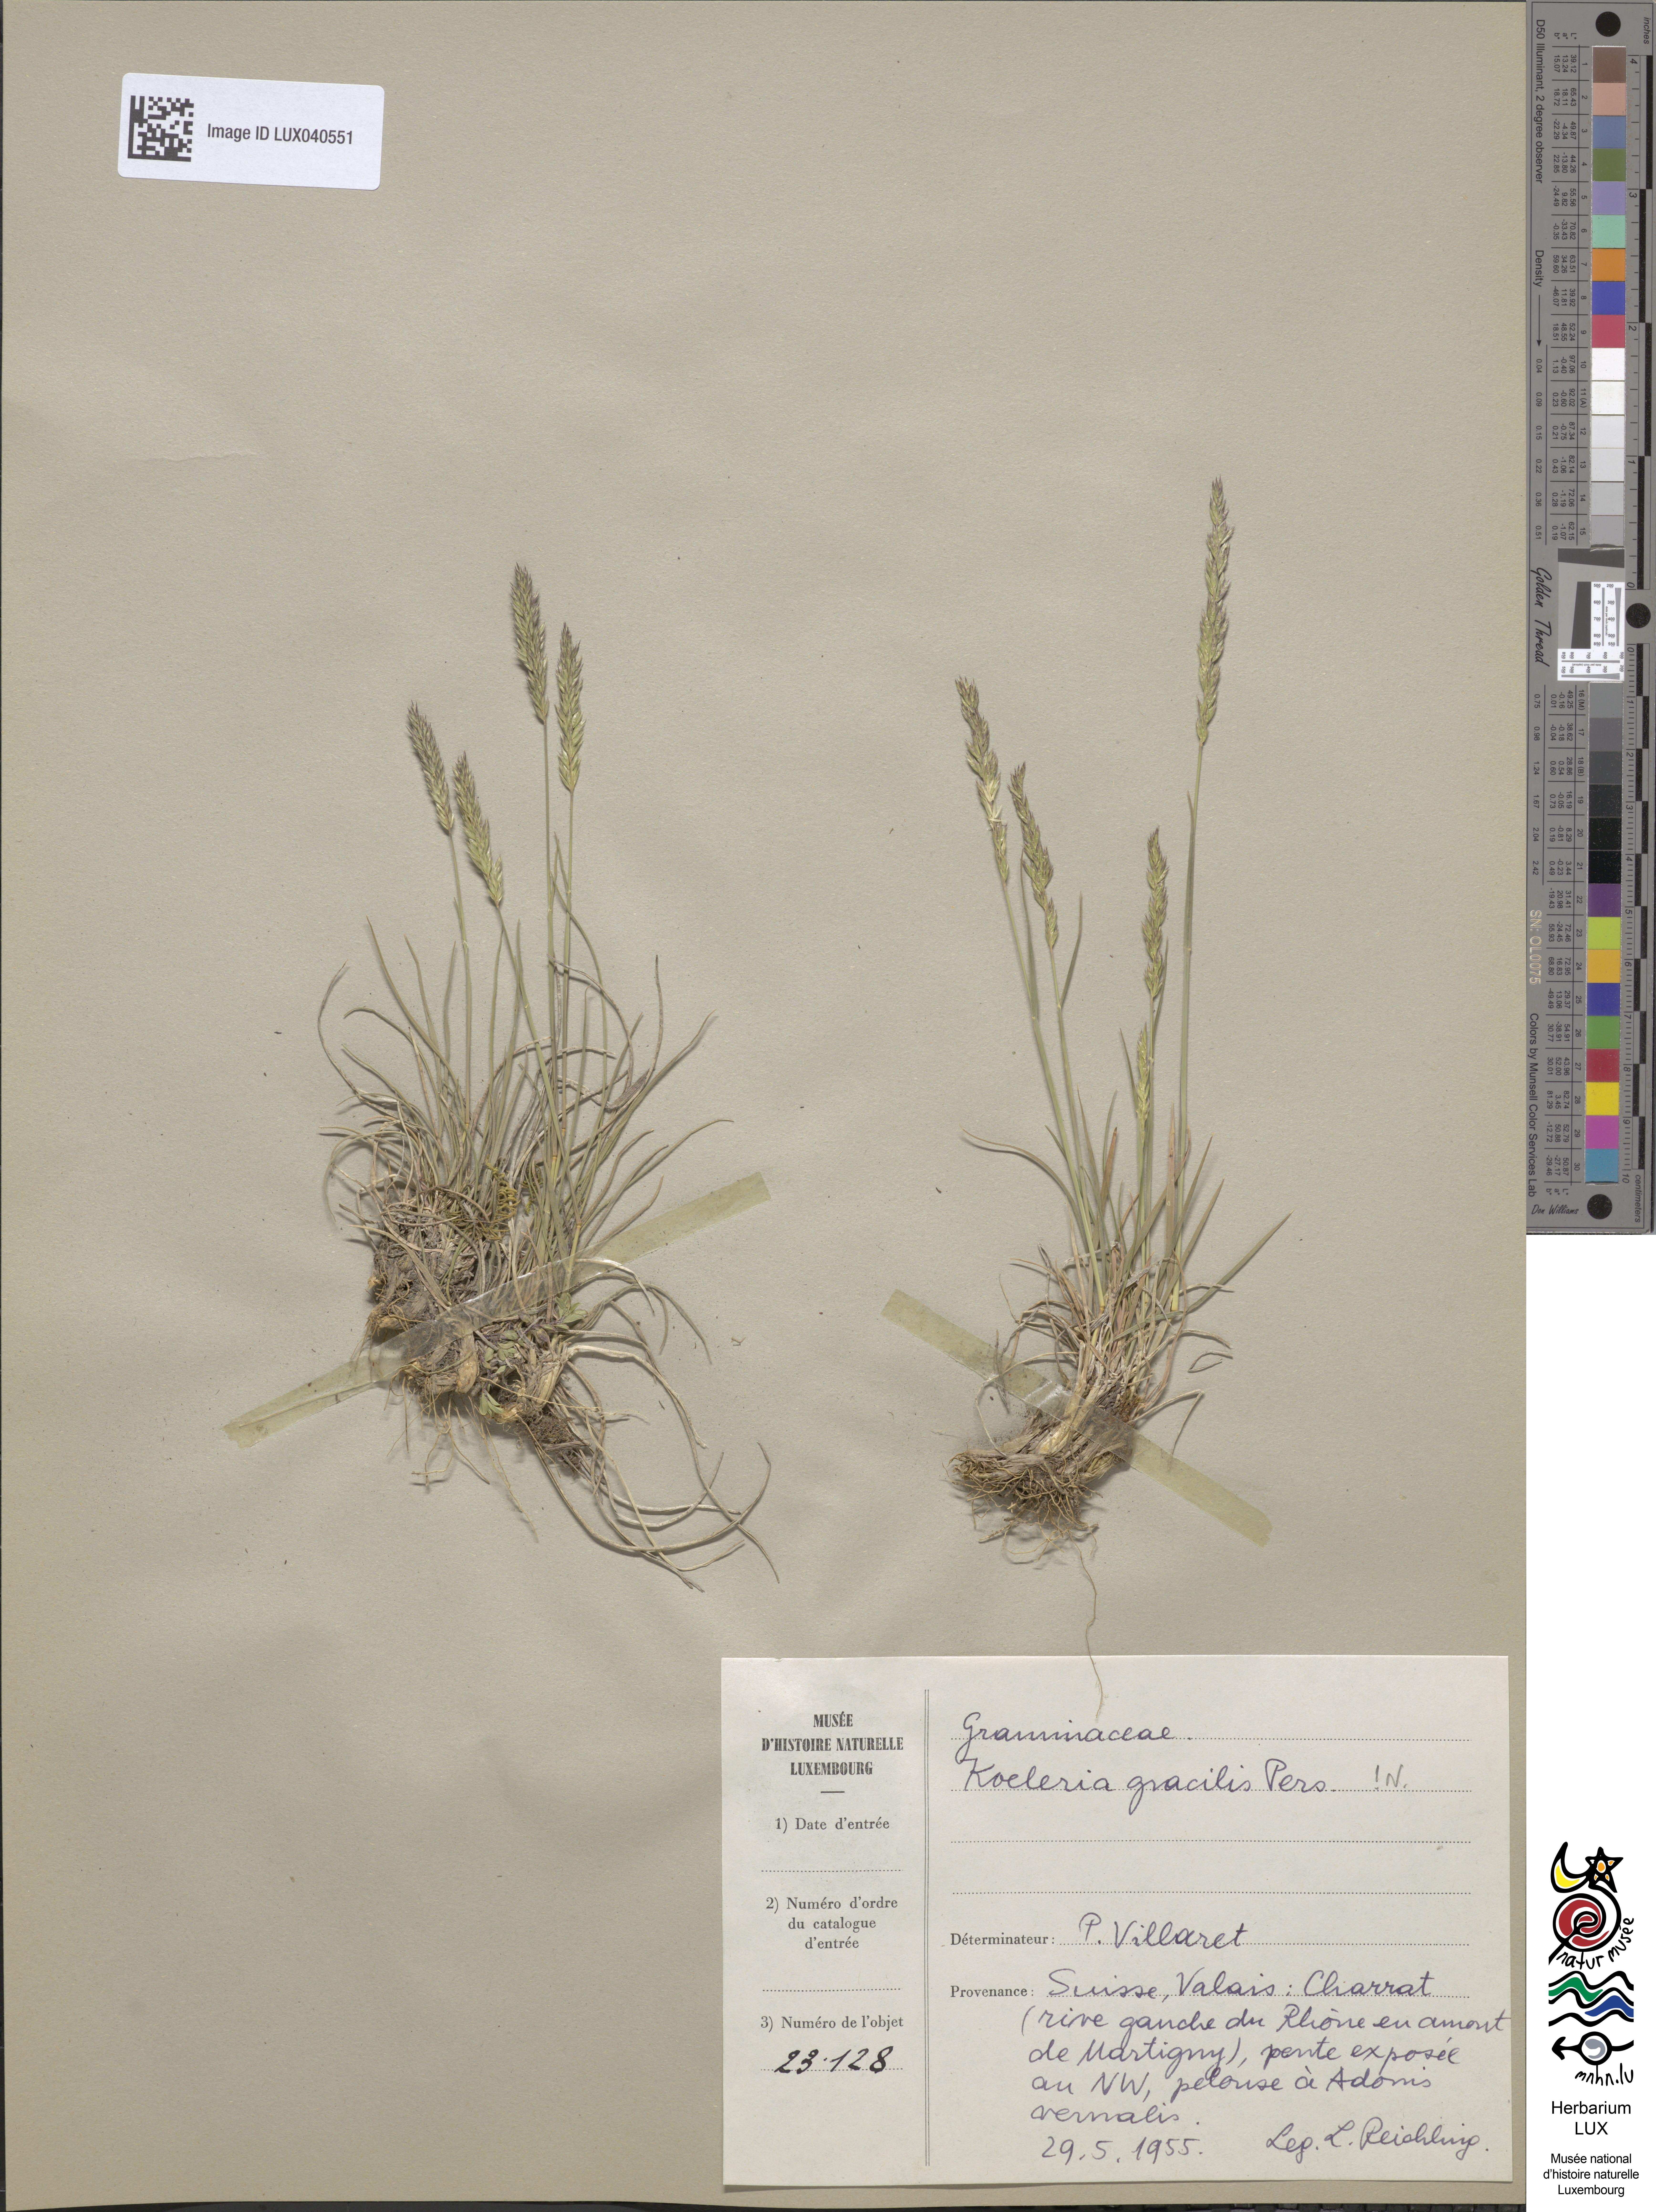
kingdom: Plantae
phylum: Tracheophyta
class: Liliopsida
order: Poales
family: Poaceae
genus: Koeleria
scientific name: Koeleria macrantha
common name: Crested hair-grass
